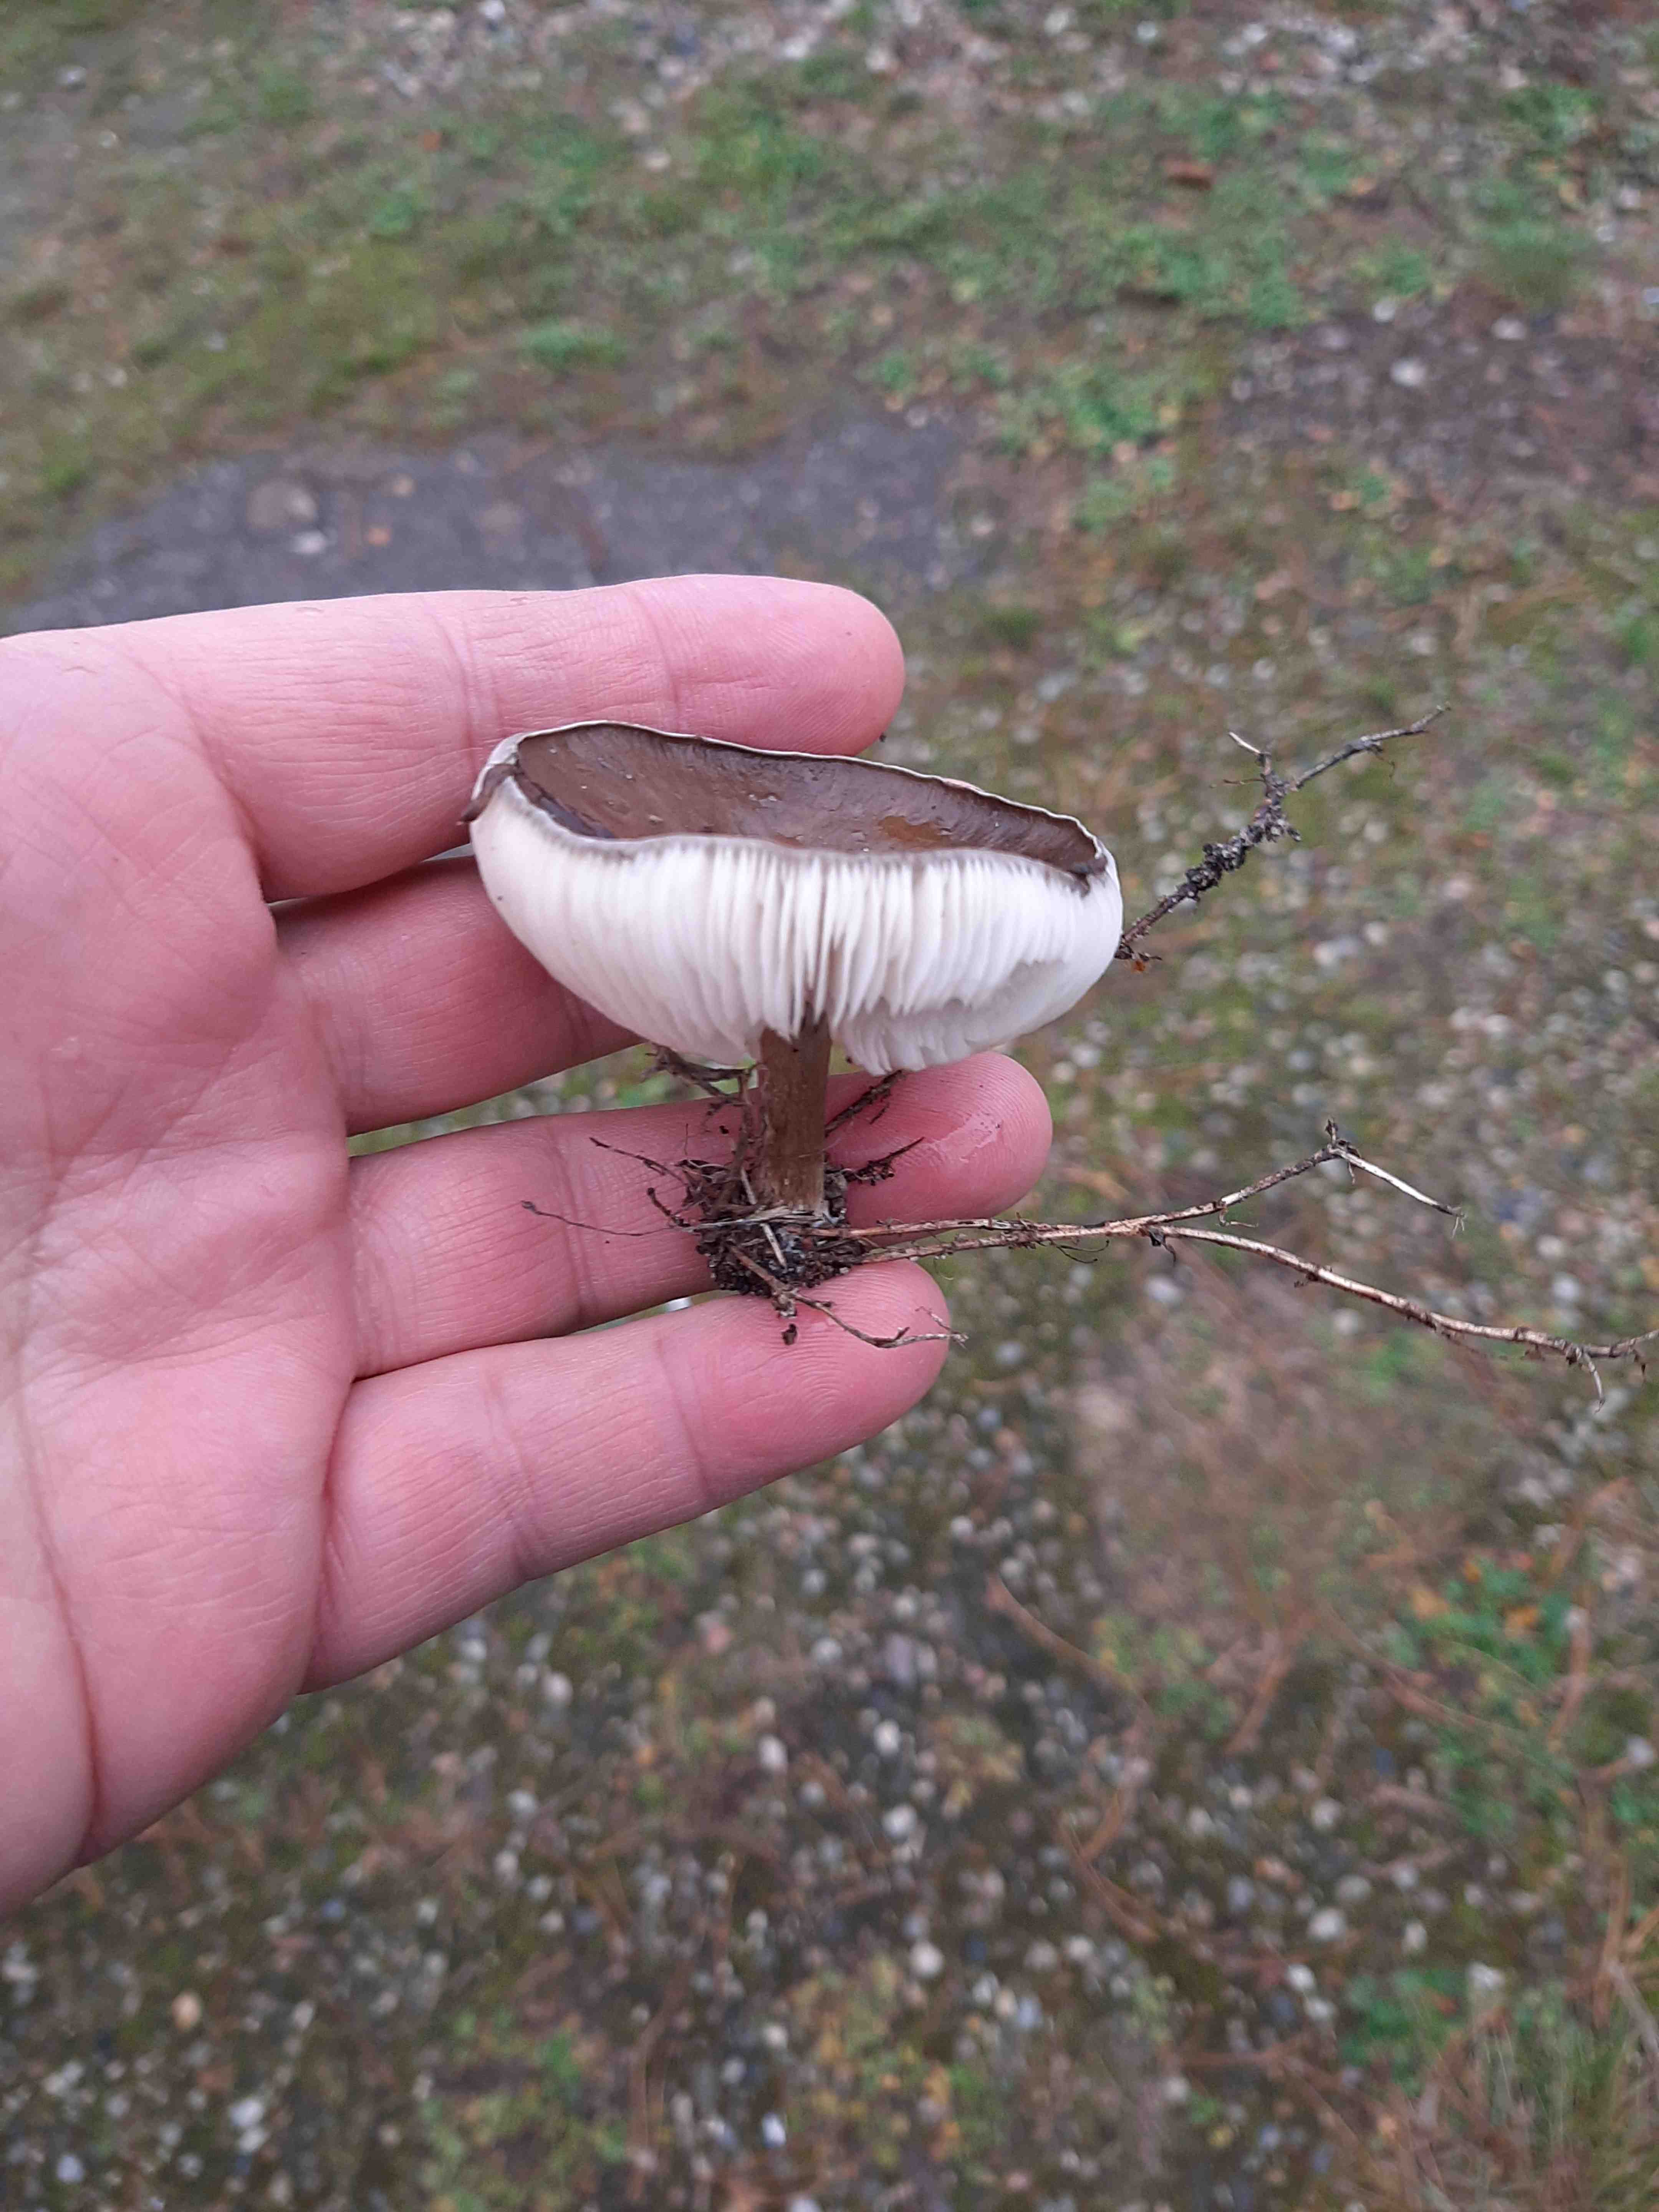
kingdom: Fungi
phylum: Basidiomycota
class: Agaricomycetes
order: Agaricales
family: Tricholomataceae
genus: Melanoleuca
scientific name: Melanoleuca
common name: munkehat
